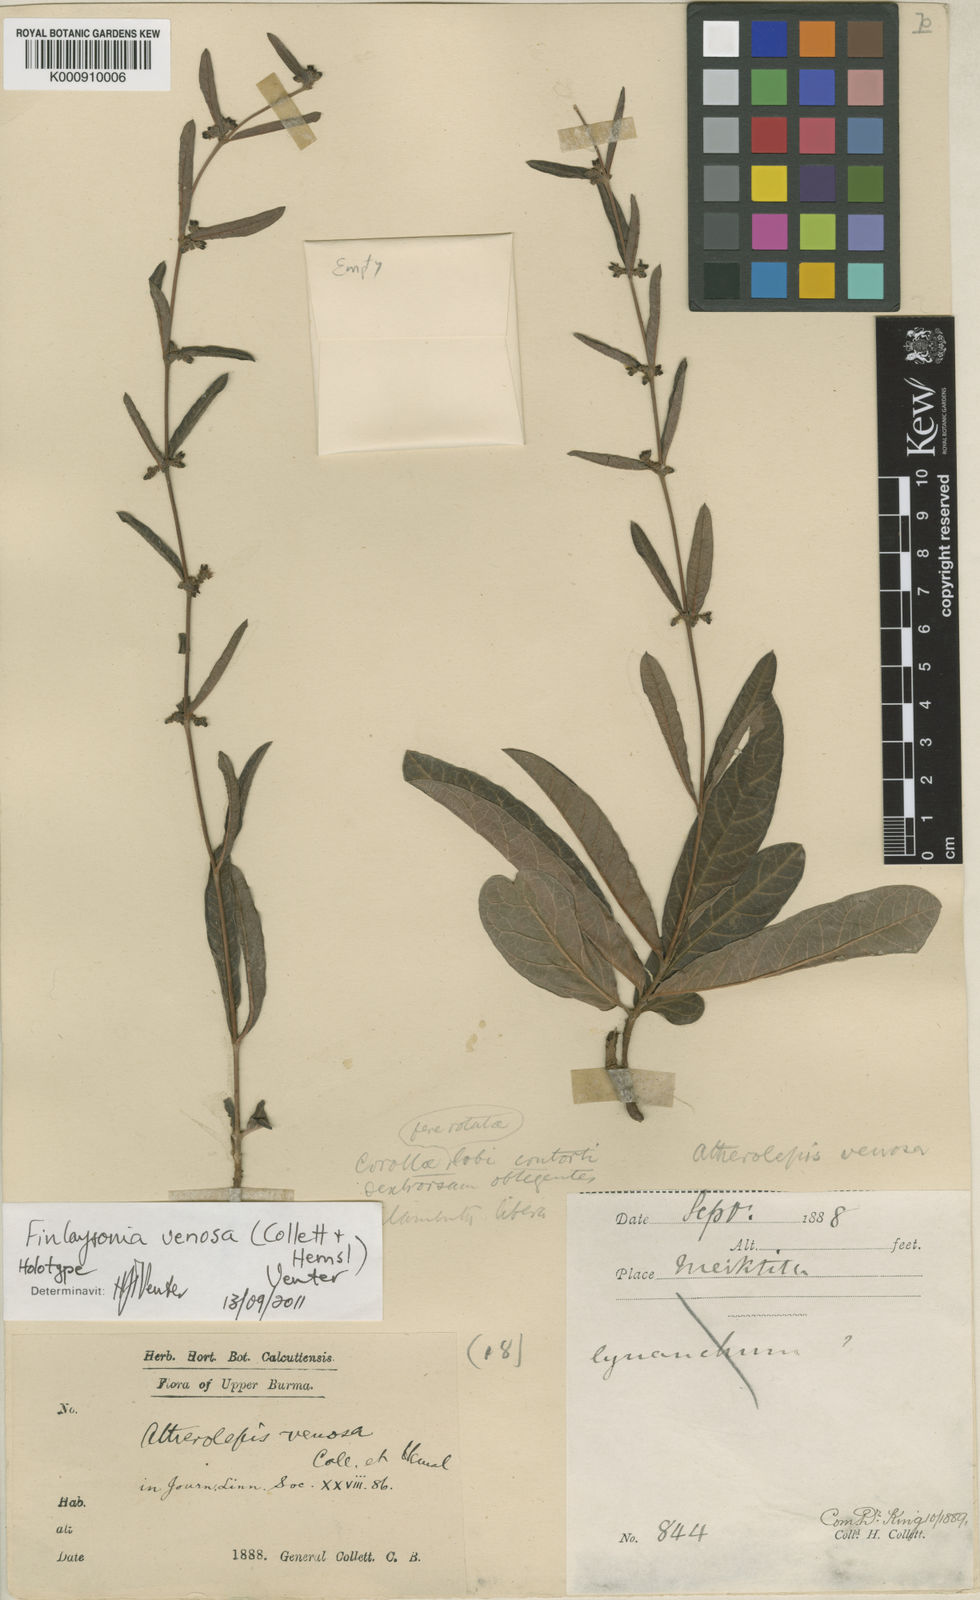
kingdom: Plantae
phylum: Tracheophyta
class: Magnoliopsida
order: Gentianales
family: Apocynaceae
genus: Finlaysonia
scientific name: Finlaysonia
